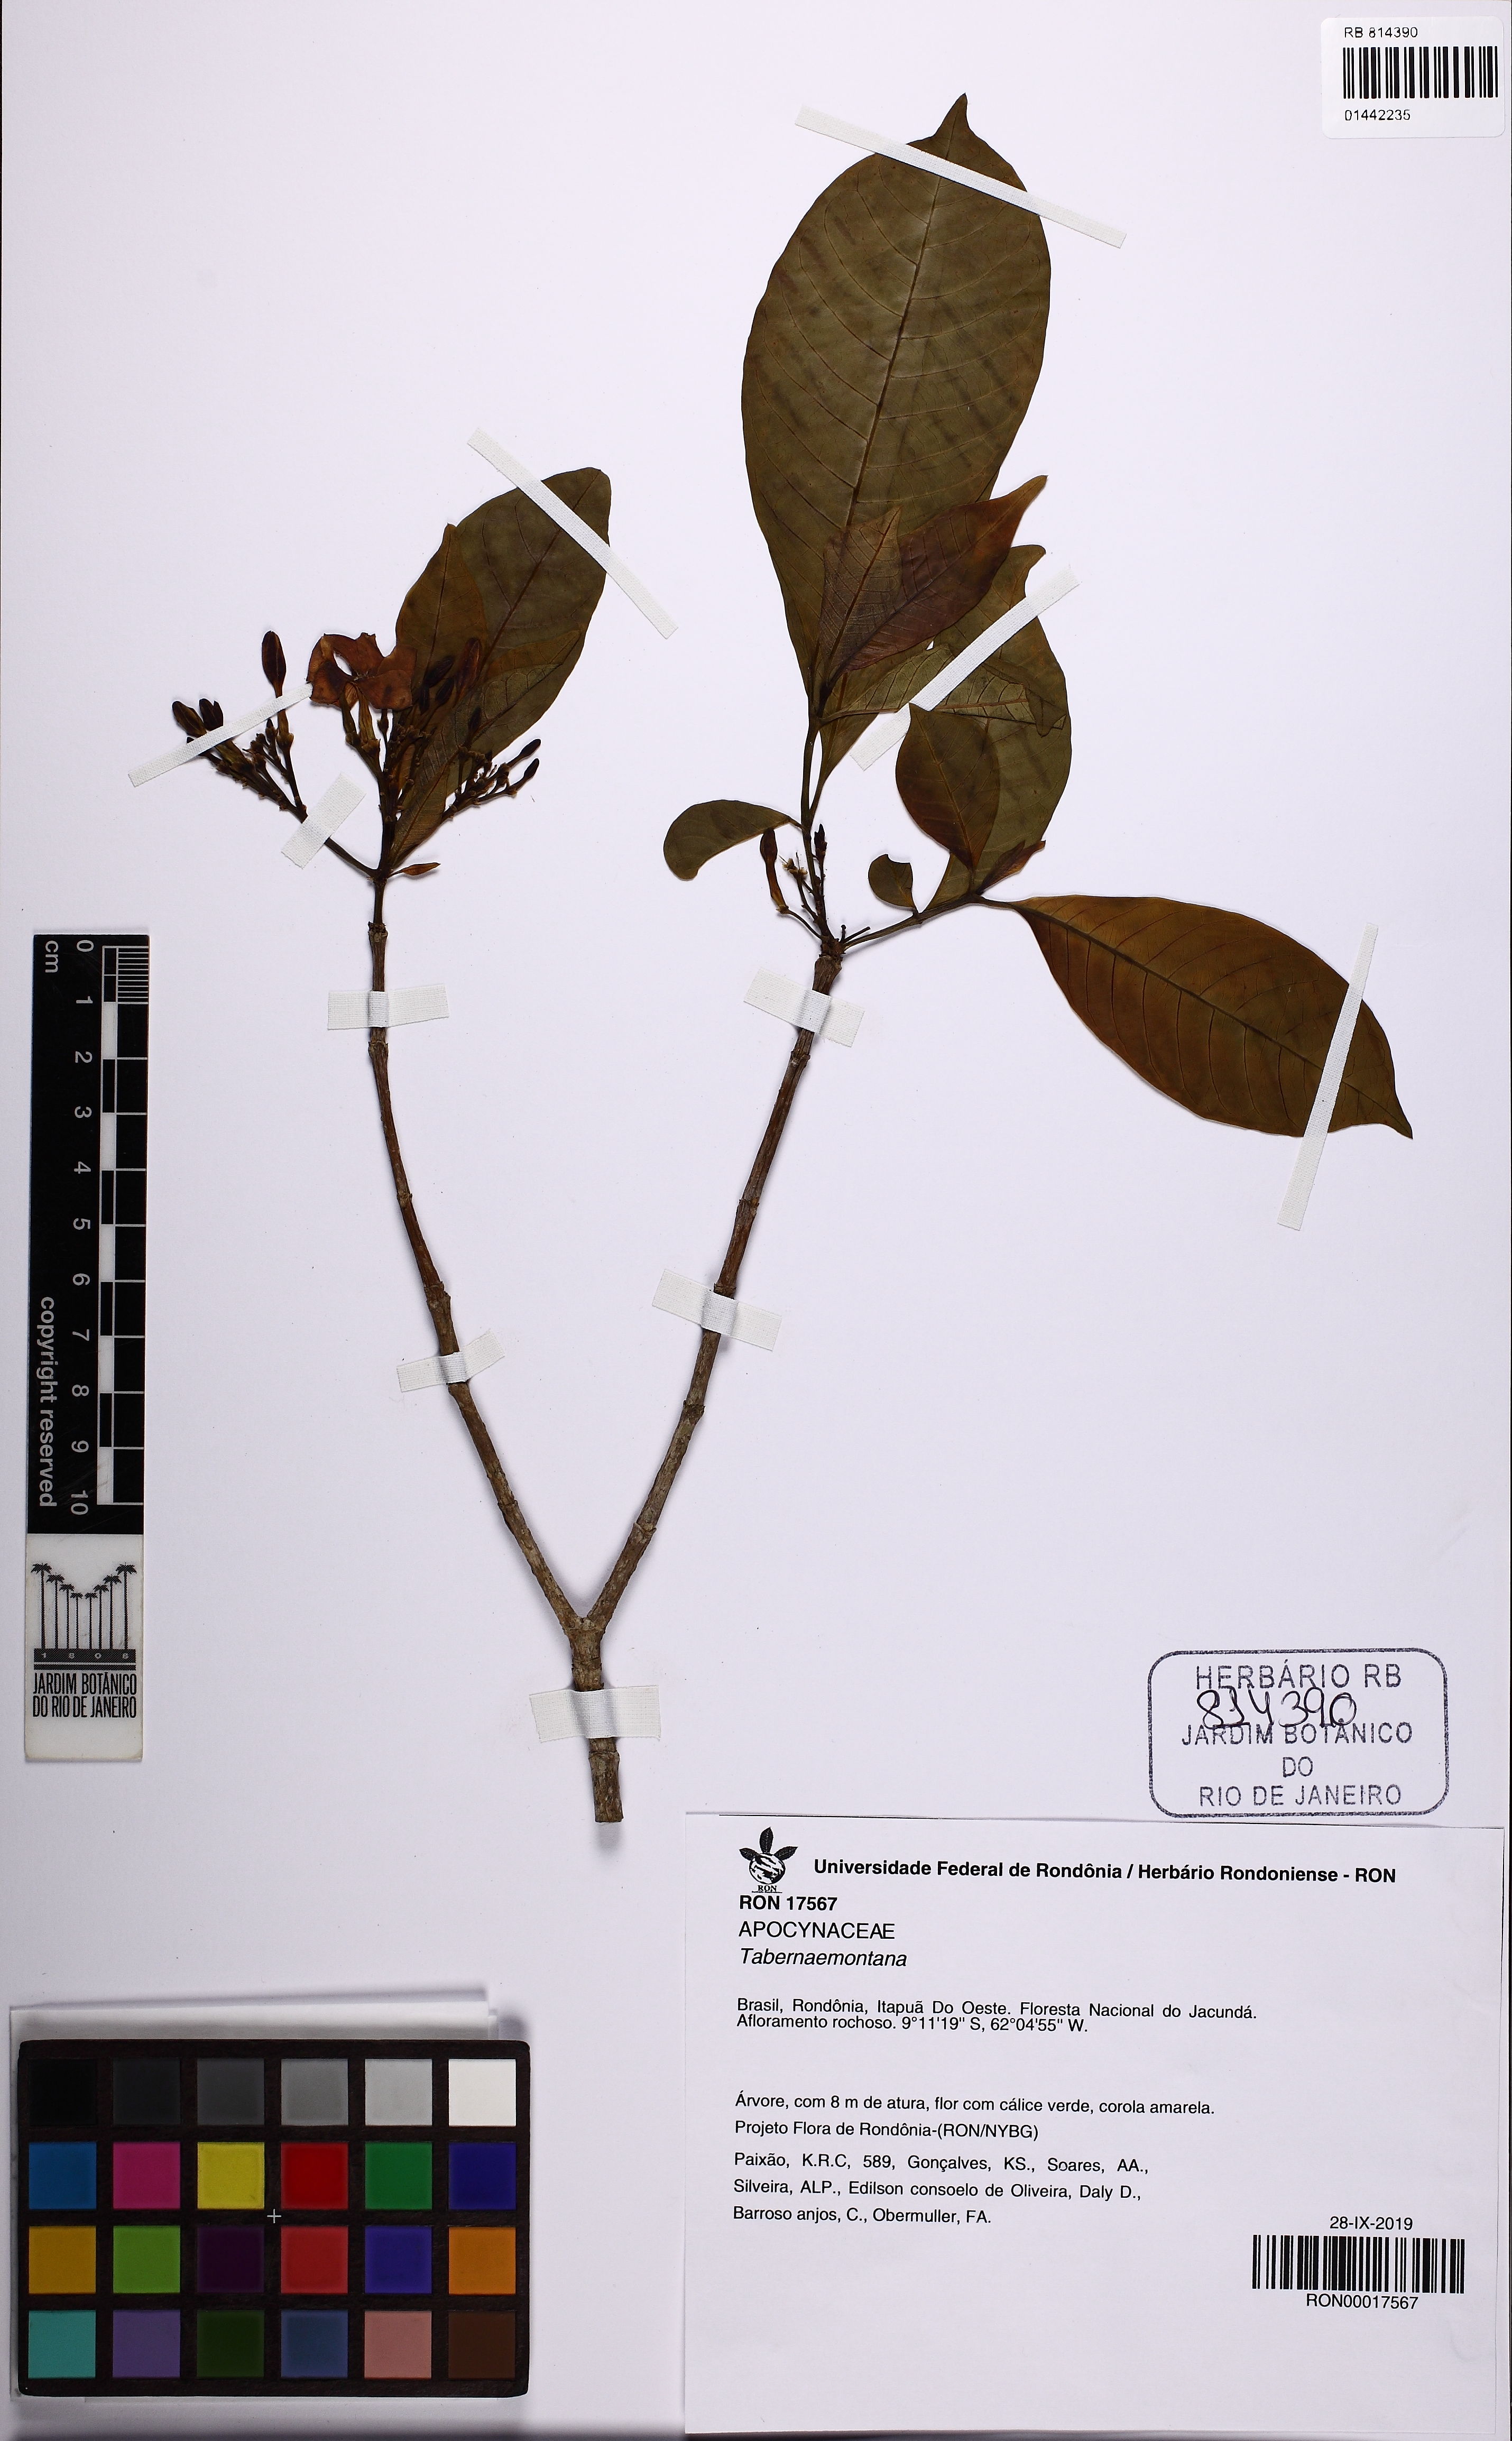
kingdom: Plantae
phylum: Tracheophyta
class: Magnoliopsida
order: Gentianales
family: Apocynaceae
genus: Tabernaemontana
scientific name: Tabernaemontana
